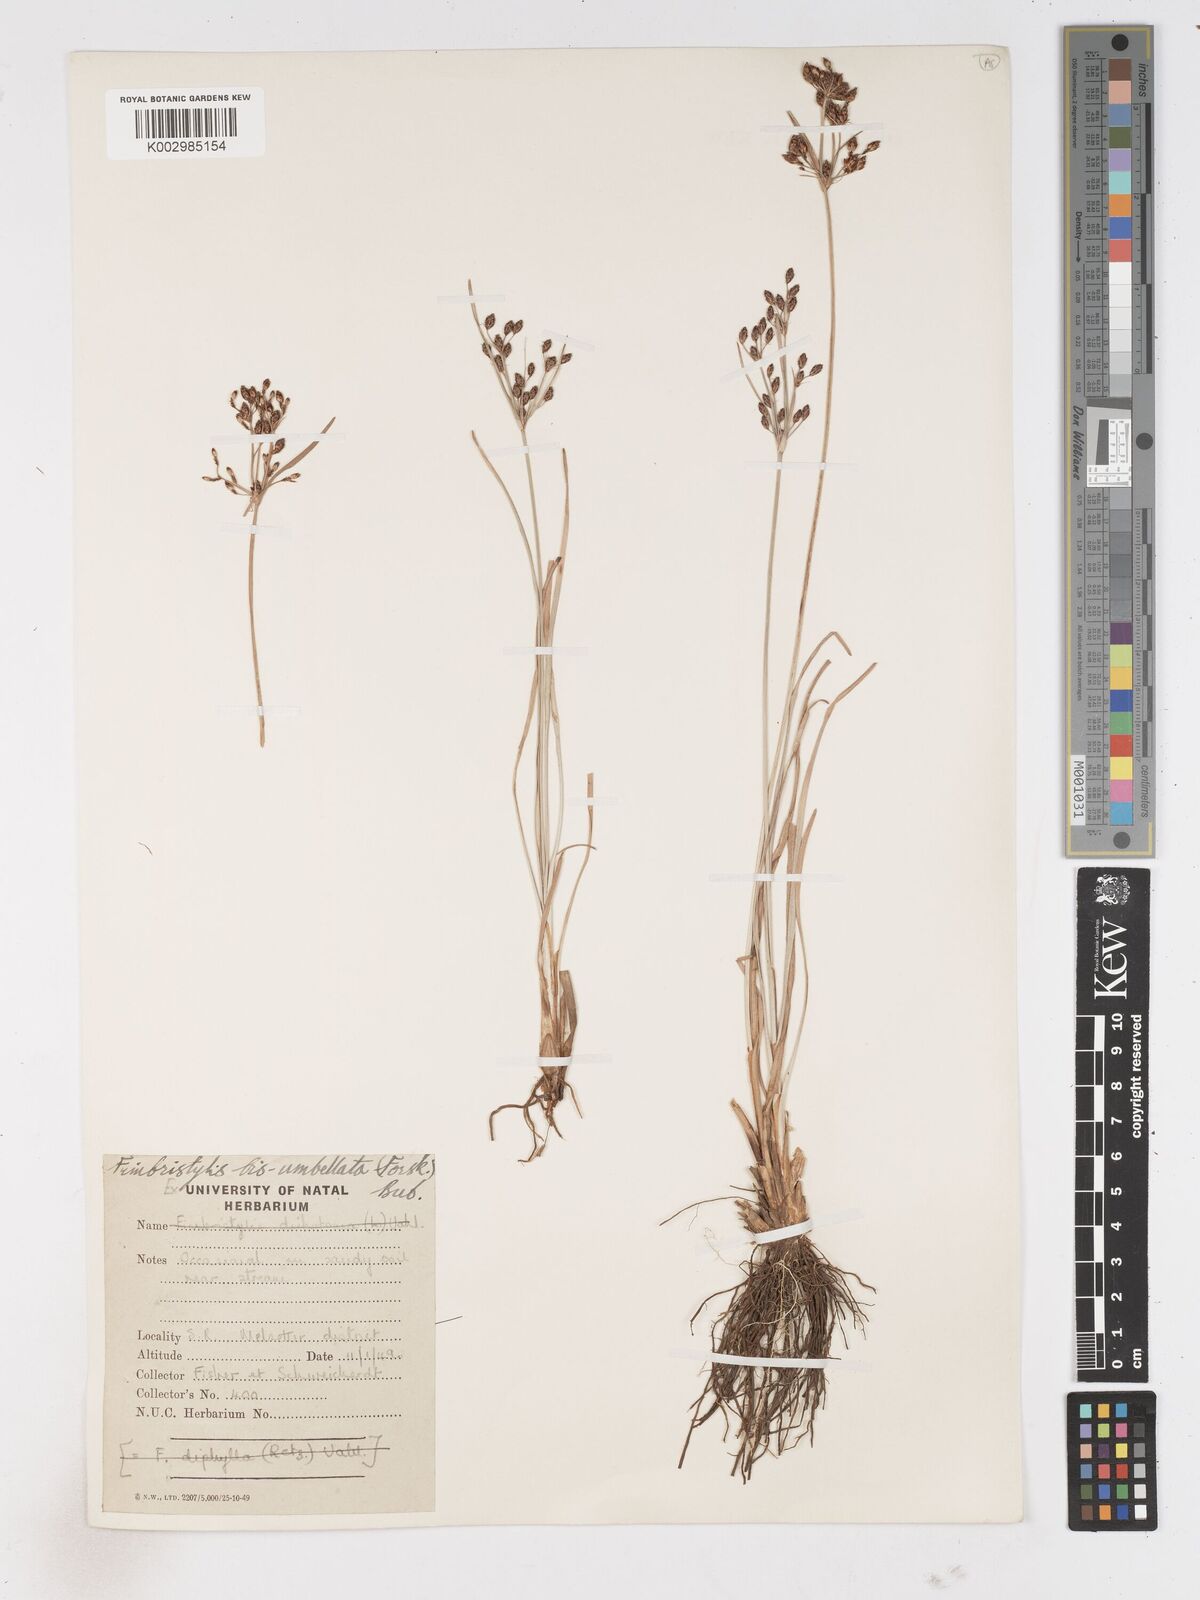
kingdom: Plantae
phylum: Tracheophyta
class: Liliopsida
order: Poales
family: Cyperaceae
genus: Fimbristylis
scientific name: Fimbristylis dichotoma
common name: Forked fimbry
